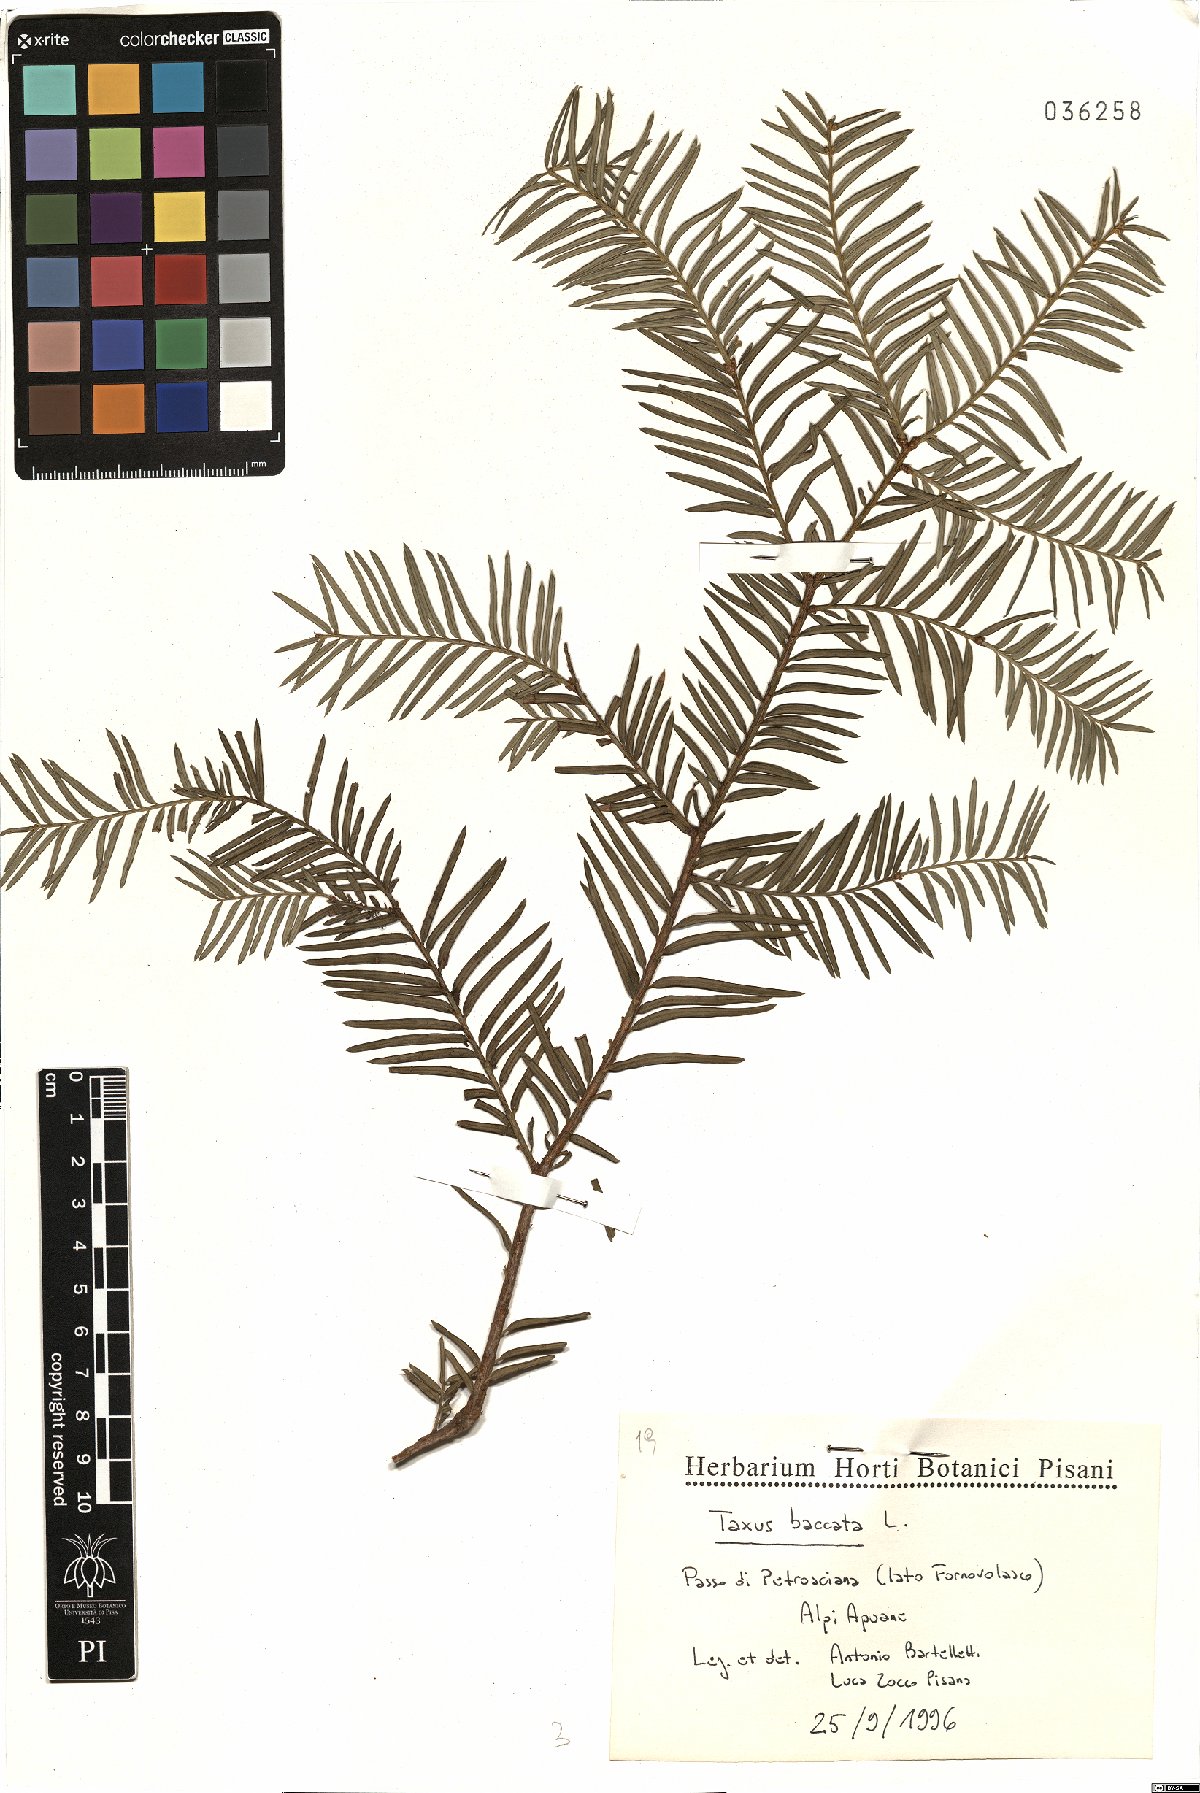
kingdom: Plantae
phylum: Tracheophyta
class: Pinopsida
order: Pinales
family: Taxaceae
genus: Taxus
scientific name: Taxus baccata
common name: Yew
